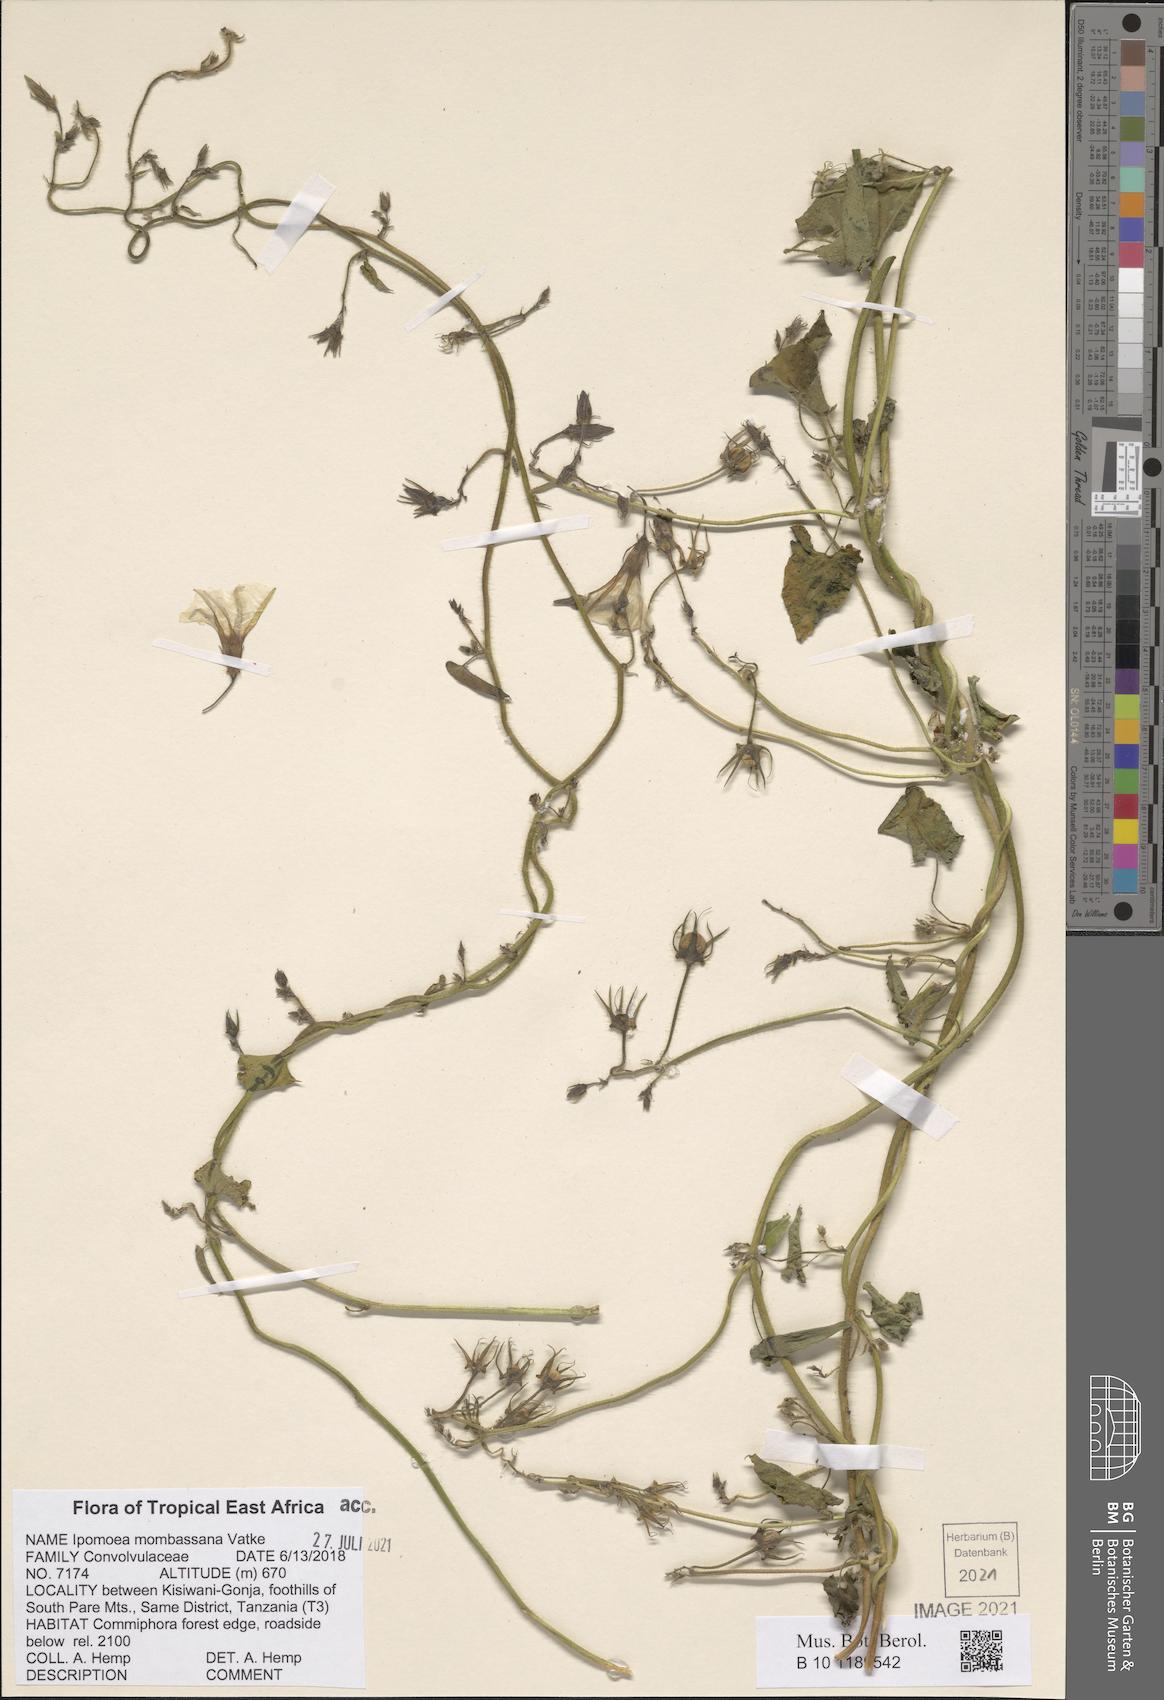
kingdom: Plantae
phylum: Tracheophyta
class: Magnoliopsida
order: Solanales
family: Convolvulaceae
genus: Ipomoea
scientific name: Ipomoea mombassana
